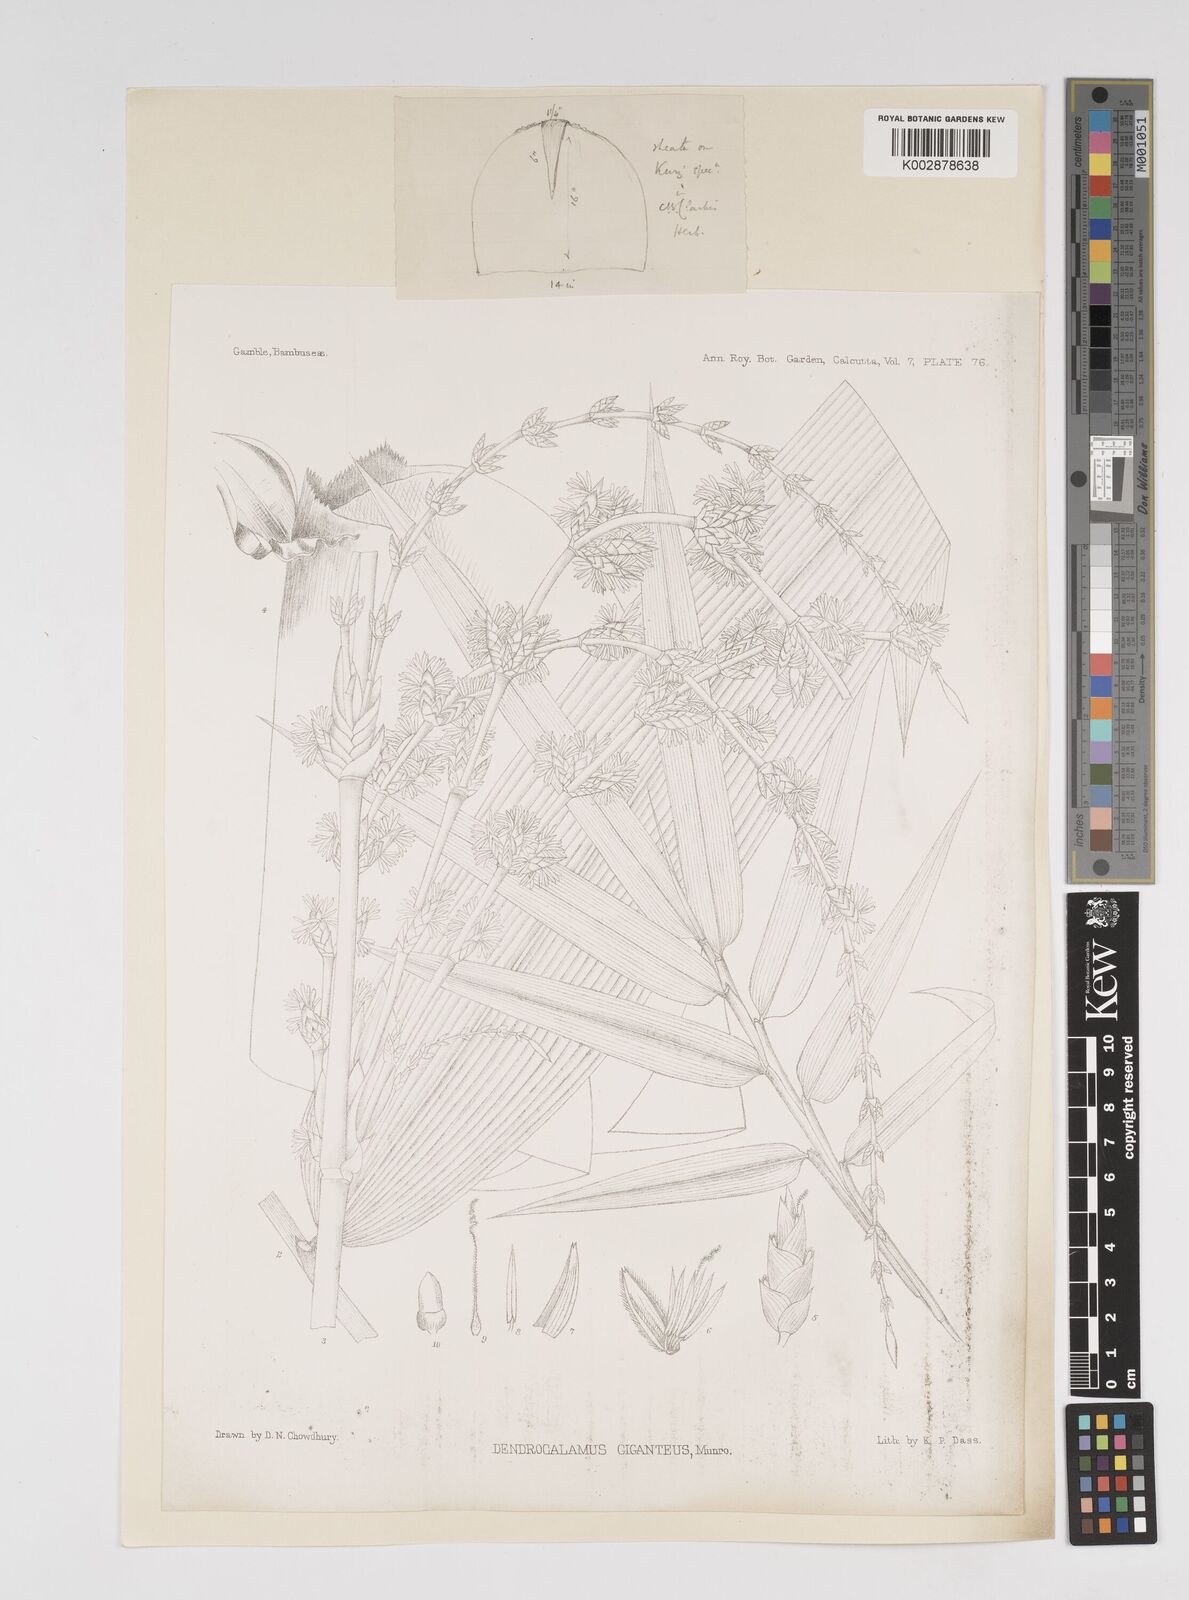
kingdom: Plantae
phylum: Tracheophyta
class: Liliopsida
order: Poales
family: Poaceae
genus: Dendrocalamus
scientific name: Dendrocalamus giganteus
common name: Giant bamboo
